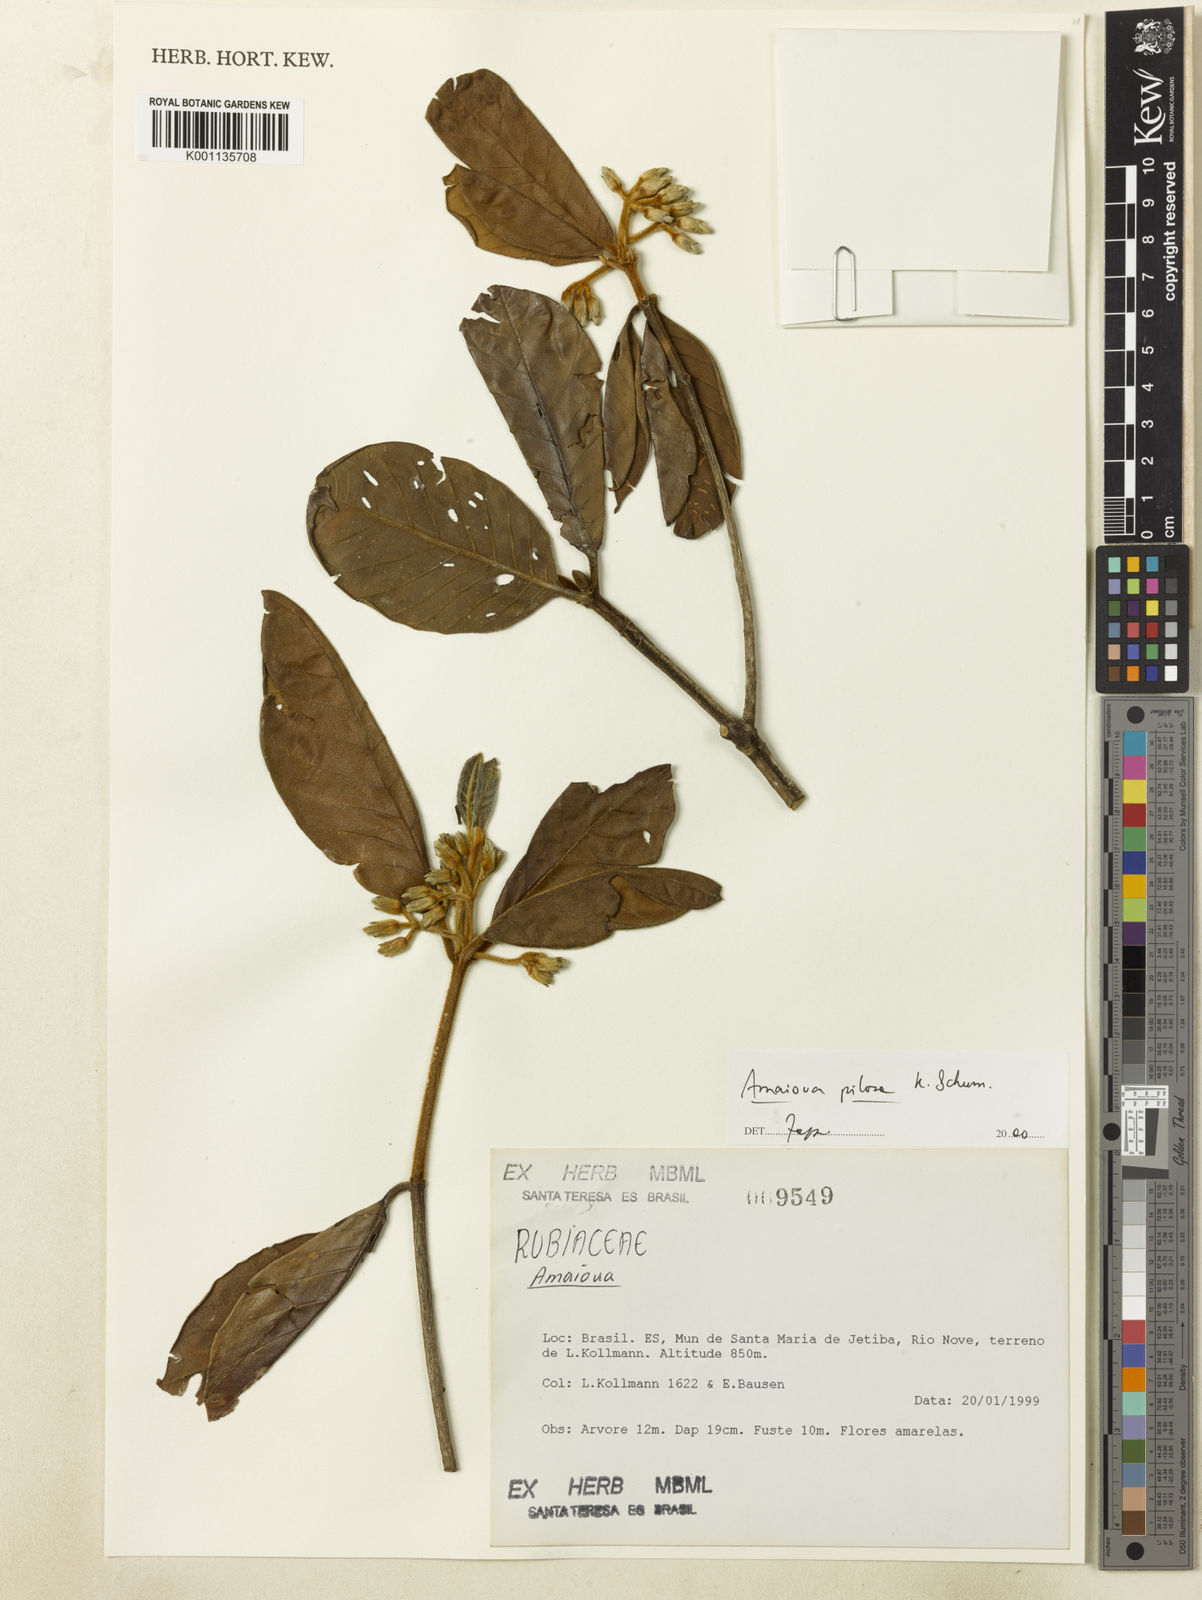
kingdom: Plantae
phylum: Tracheophyta
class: Magnoliopsida
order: Gentianales
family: Rubiaceae
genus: Amaioua
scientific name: Amaioua pilosa
